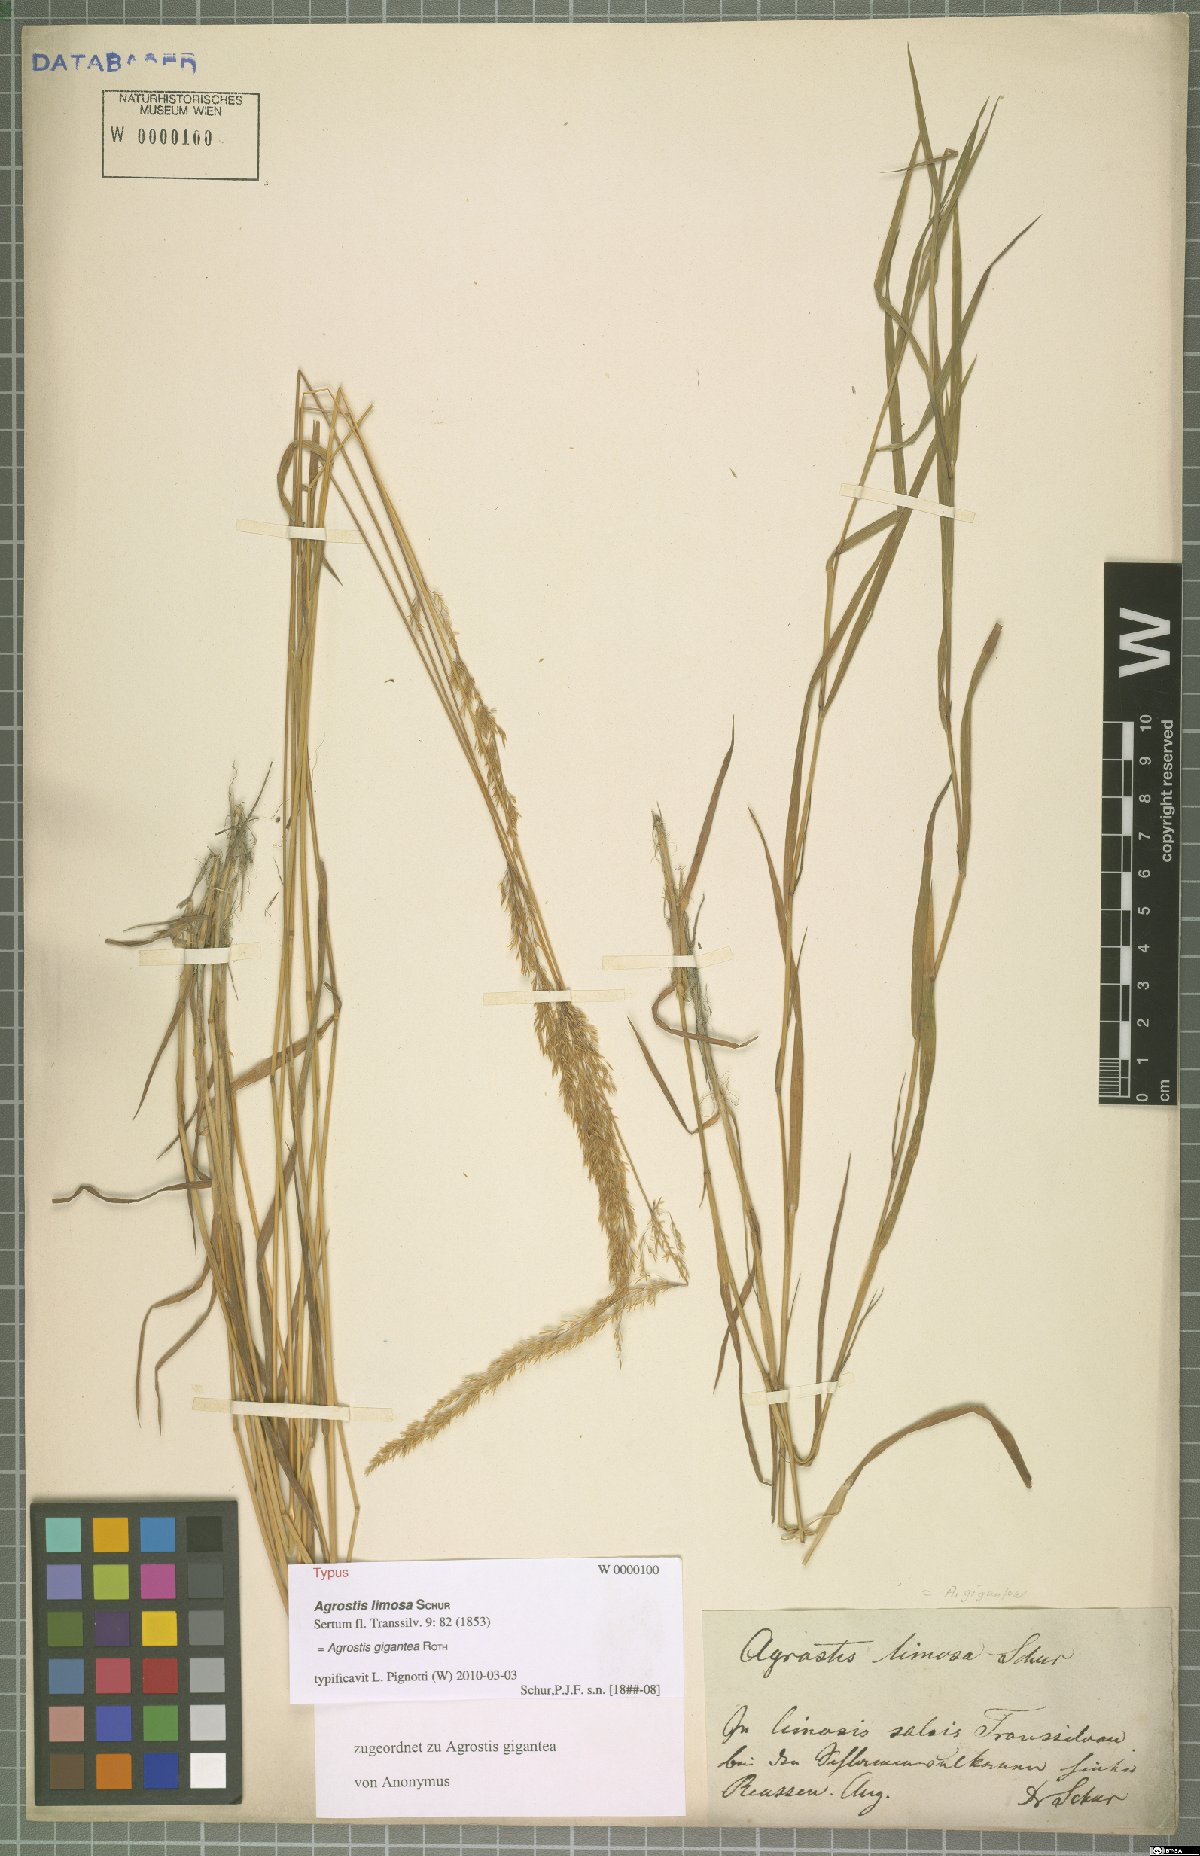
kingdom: Plantae
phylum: Tracheophyta
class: Liliopsida
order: Poales
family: Poaceae
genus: Agrostis
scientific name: Agrostis gigantea
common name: Black bent
